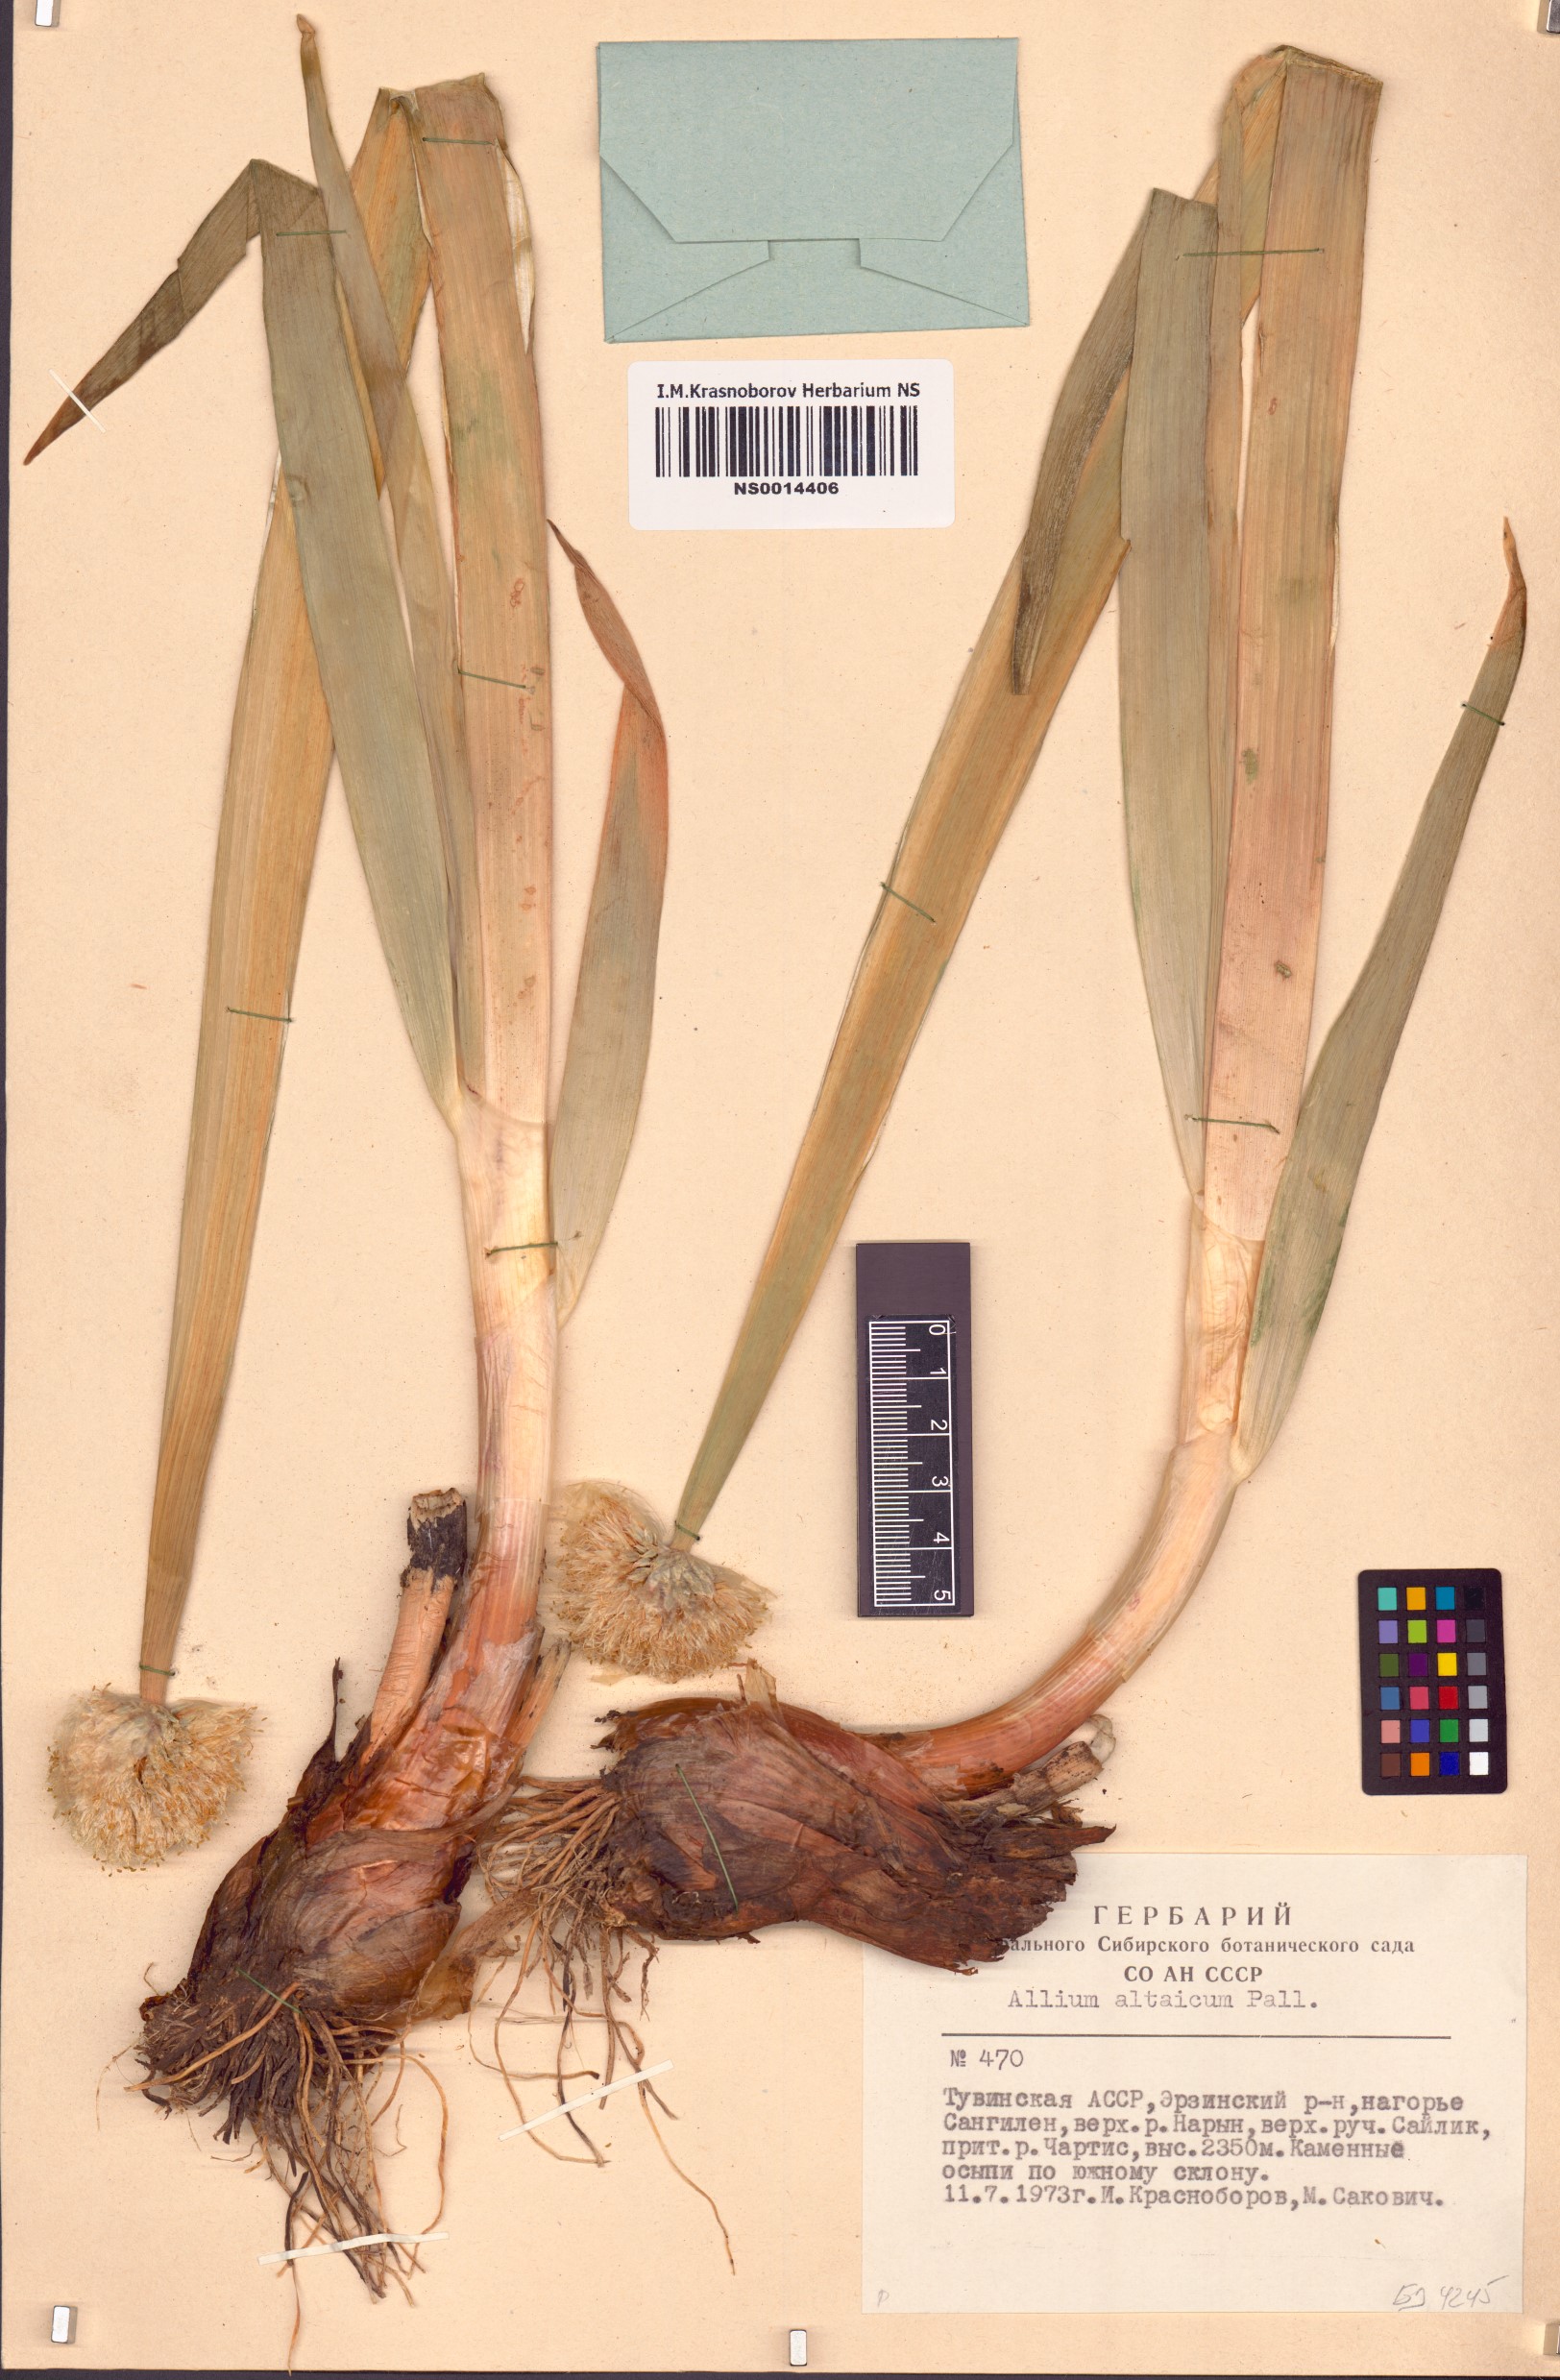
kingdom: Plantae
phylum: Tracheophyta
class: Liliopsida
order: Asparagales
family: Amaryllidaceae
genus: Allium
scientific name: Allium altaicum
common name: Altai onion
